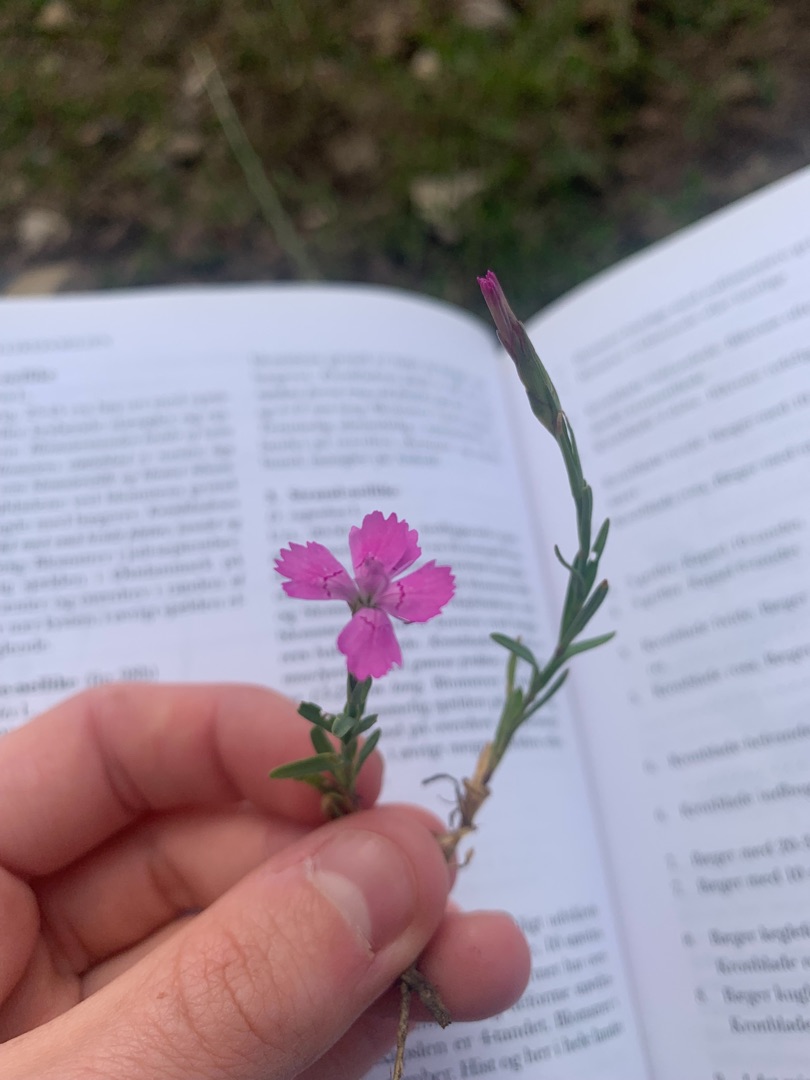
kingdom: Plantae
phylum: Tracheophyta
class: Magnoliopsida
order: Caryophyllales
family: Caryophyllaceae
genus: Dianthus
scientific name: Dianthus deltoides
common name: Bakke-nellike
